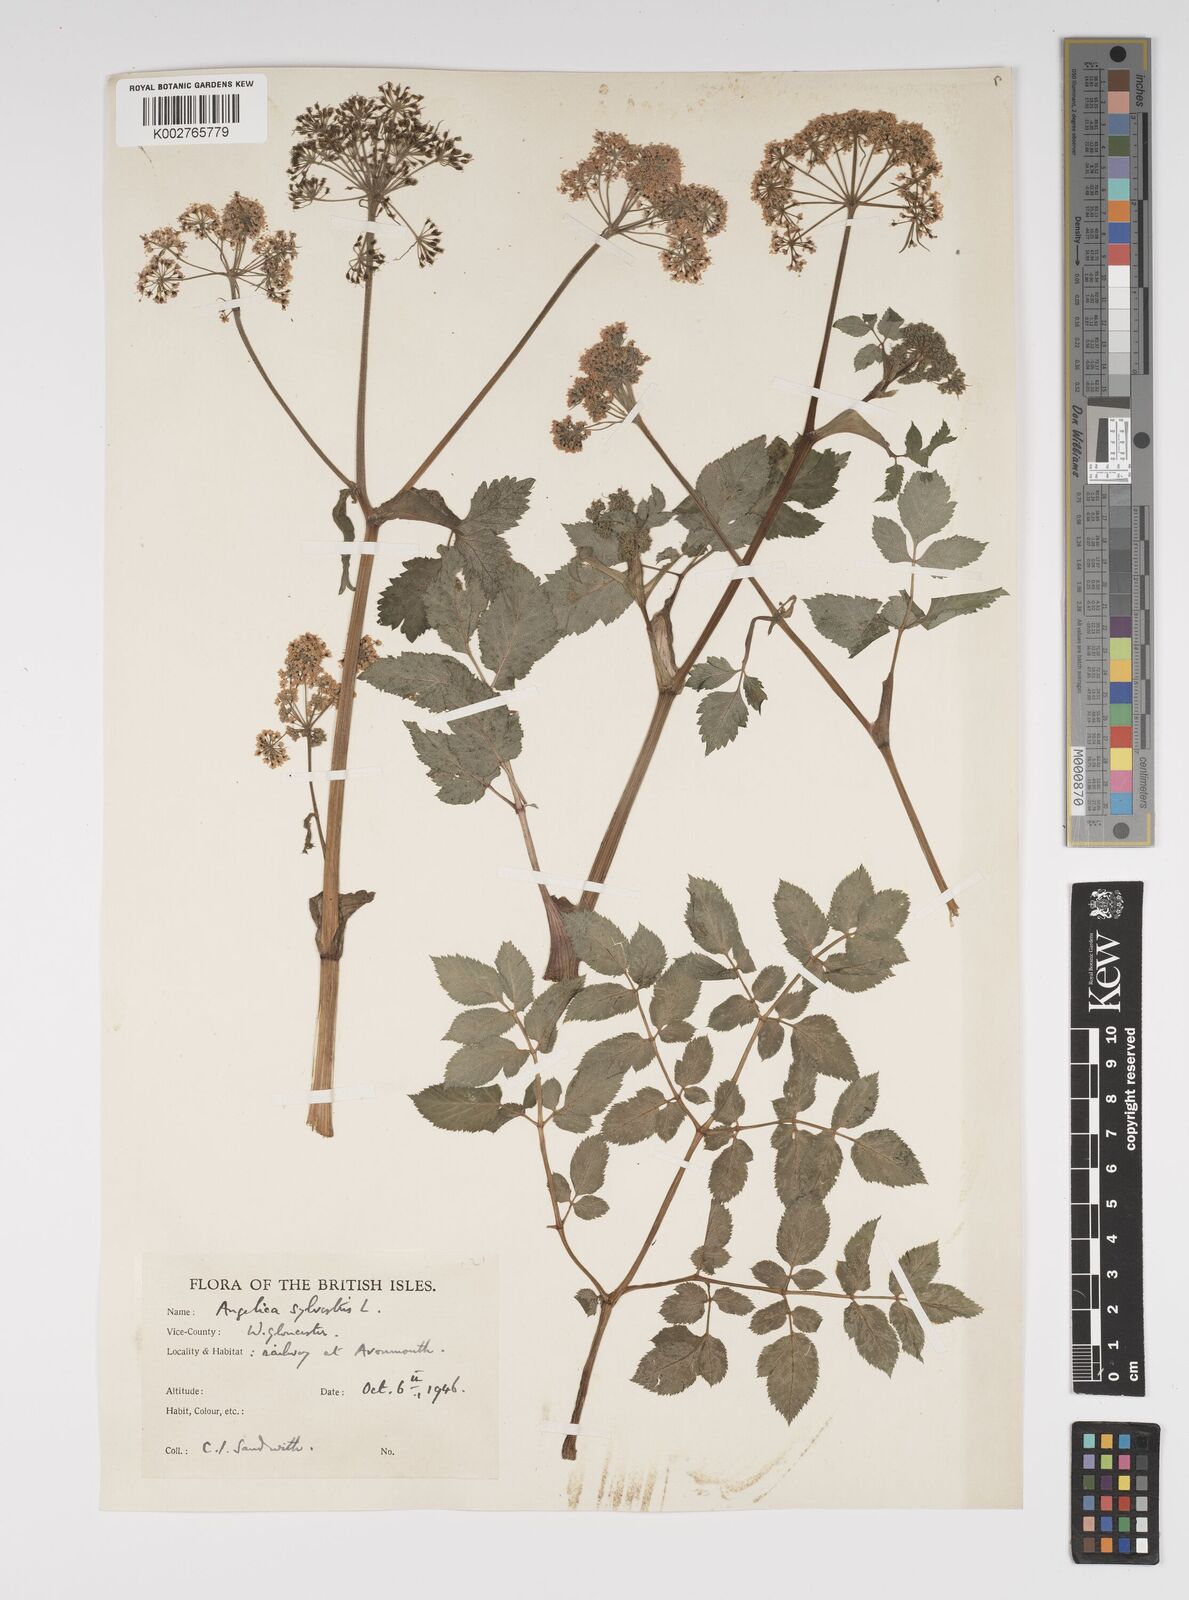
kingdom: Plantae
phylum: Tracheophyta
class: Magnoliopsida
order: Apiales
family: Apiaceae
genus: Angelica
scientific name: Angelica sylvestris
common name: Wild angelica
